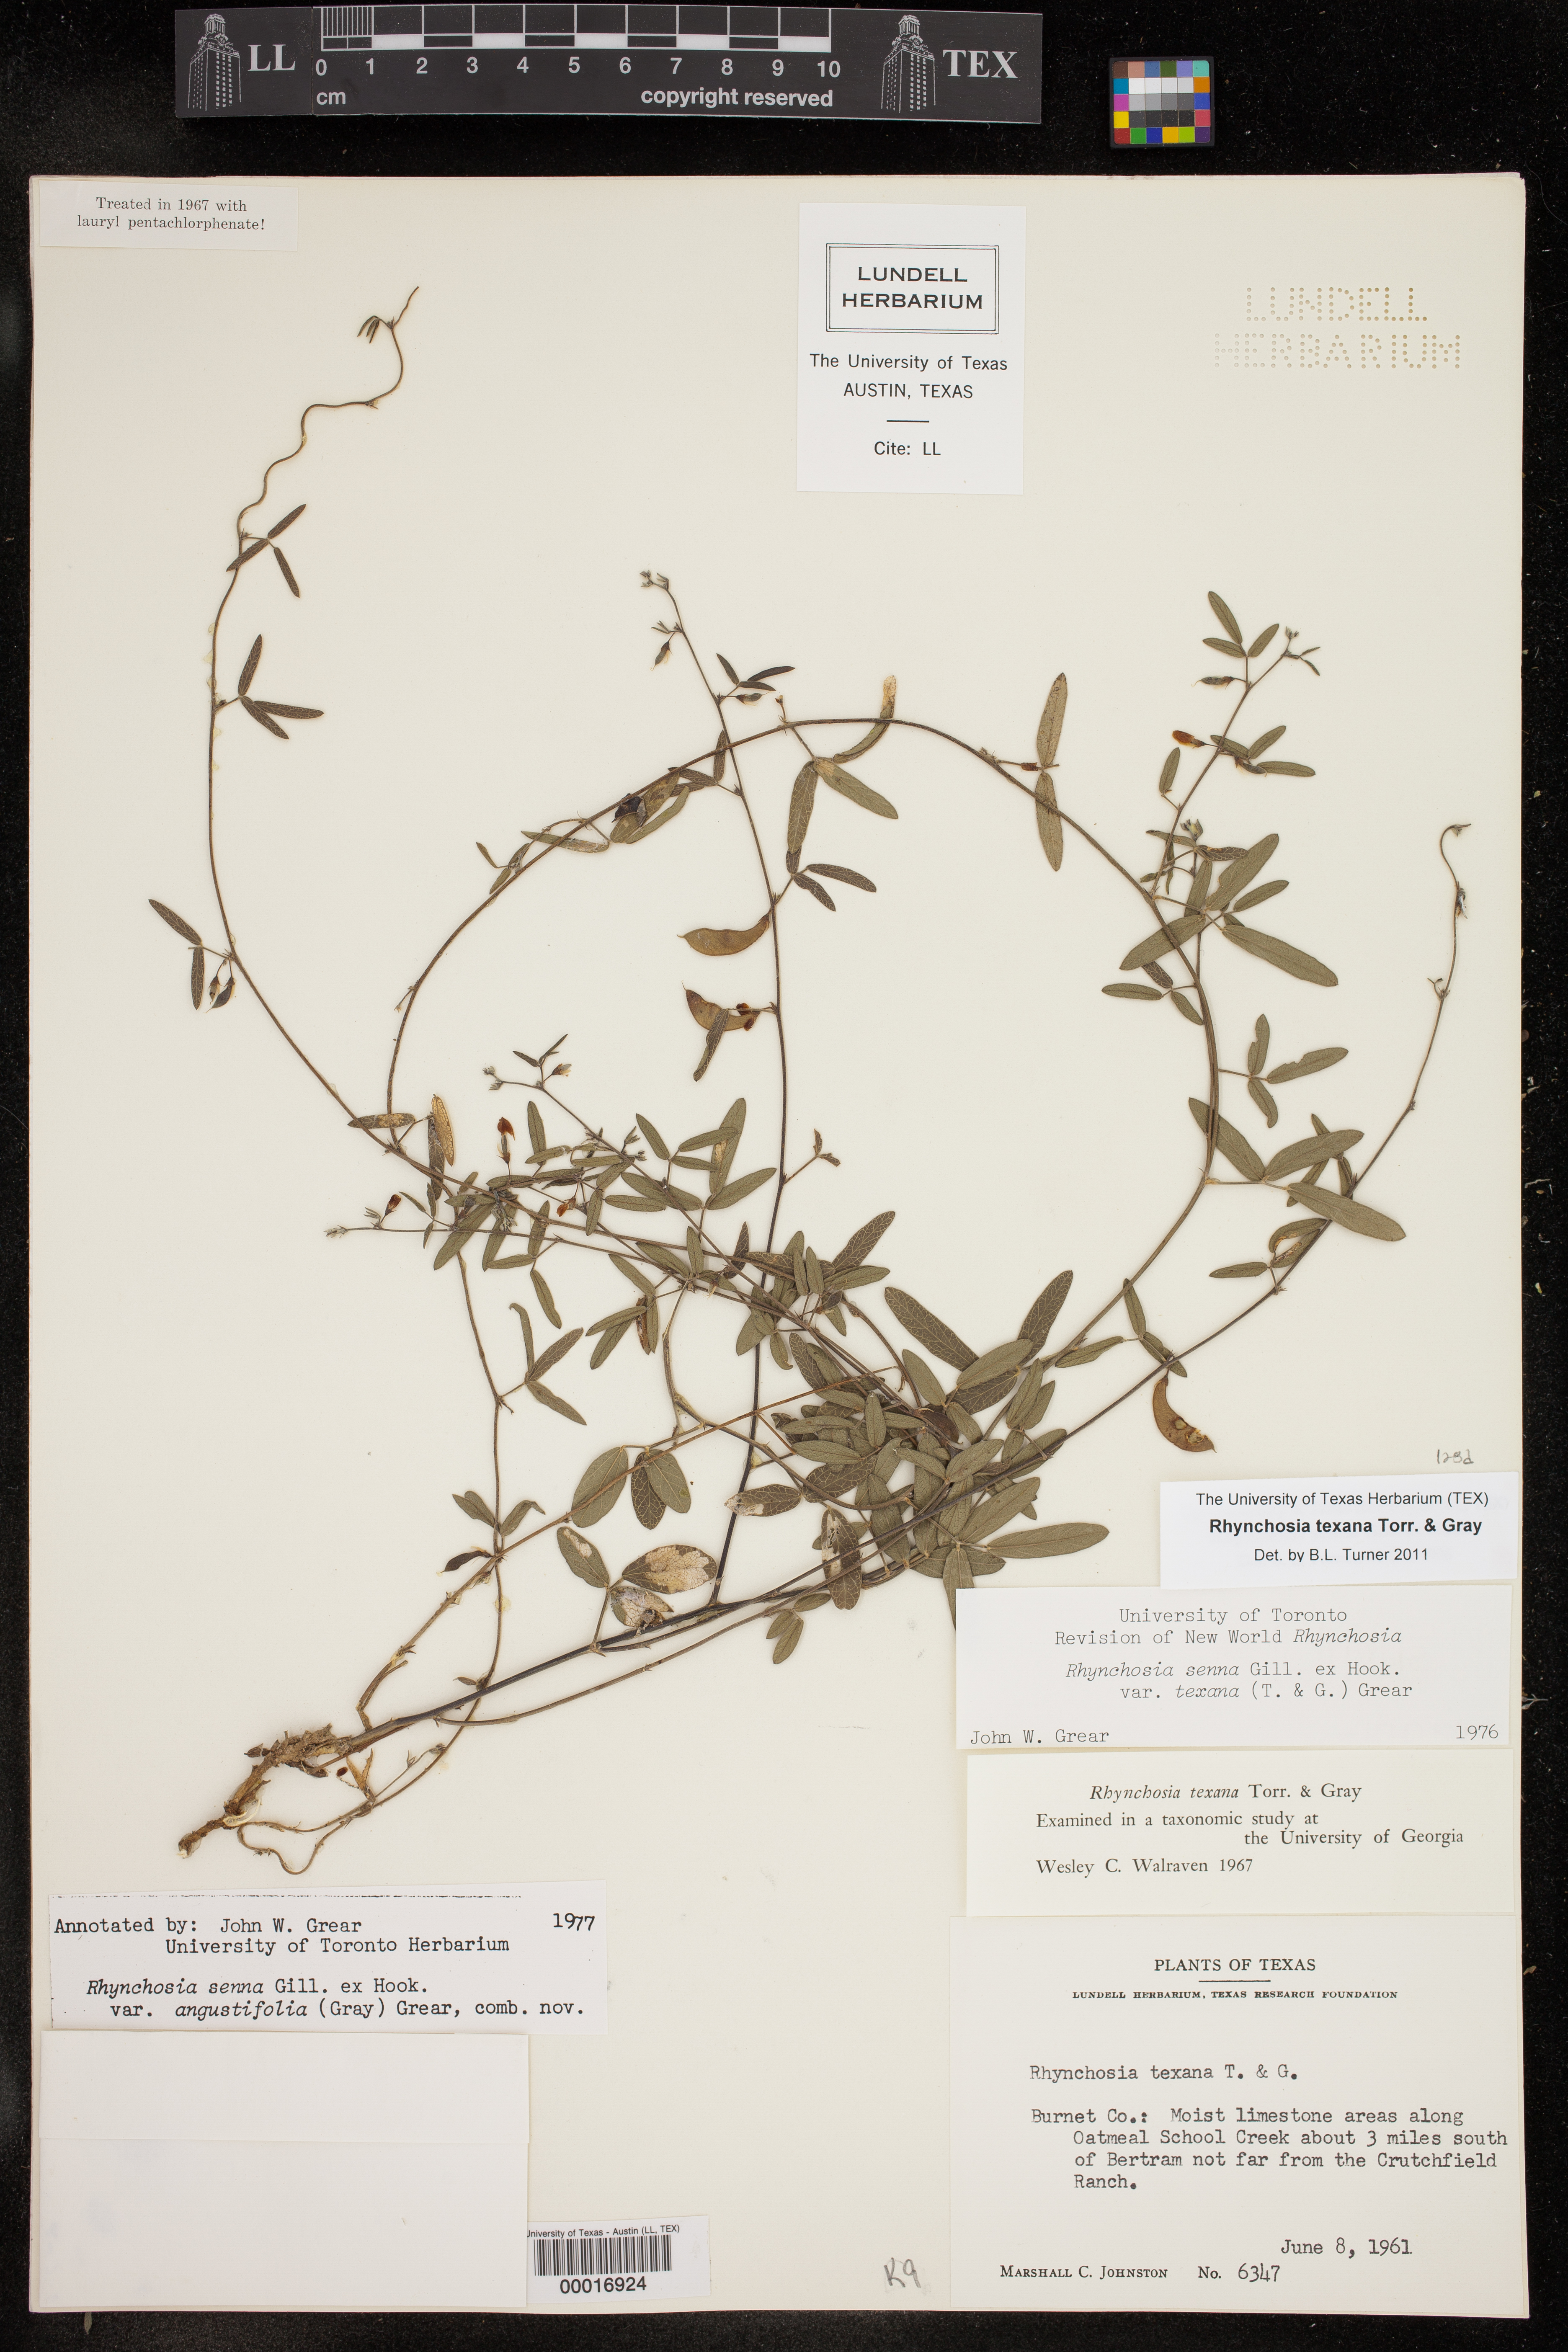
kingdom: Plantae
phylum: Tracheophyta
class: Magnoliopsida
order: Fabales
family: Fabaceae
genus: Rhynchosia
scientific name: Rhynchosia senna
